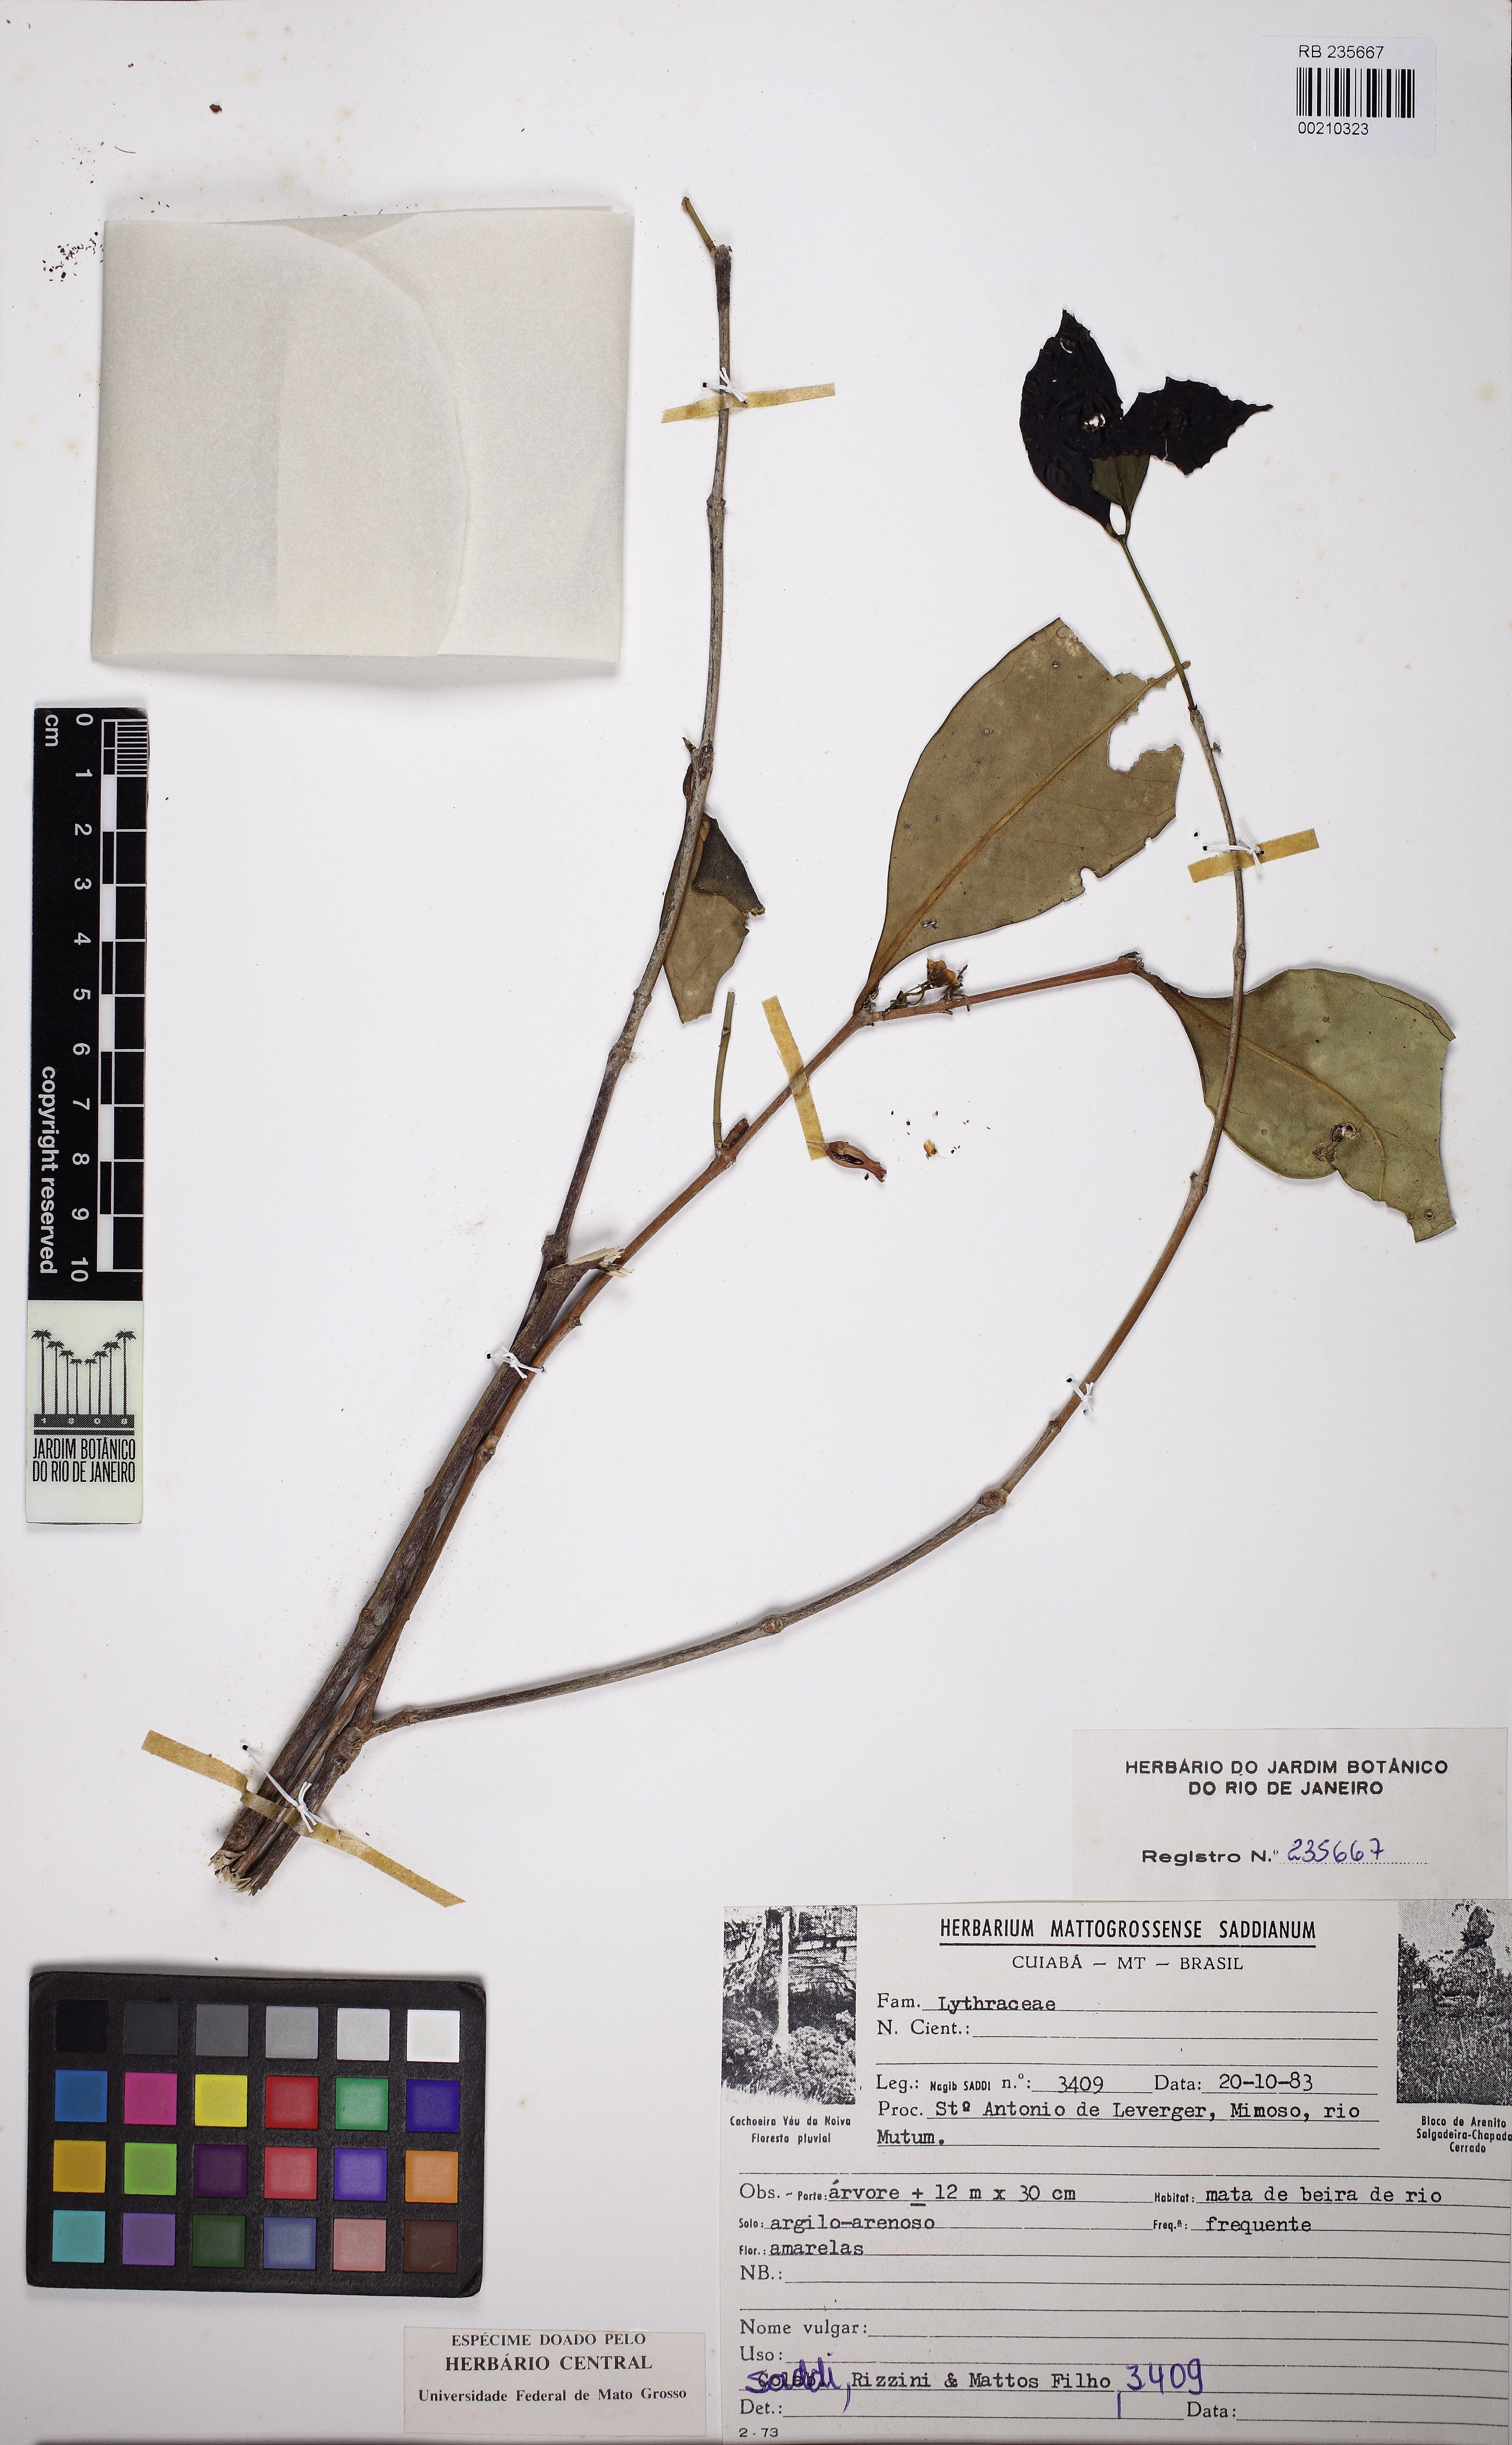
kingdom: Plantae
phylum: Tracheophyta
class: Magnoliopsida
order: Myrtales
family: Lythraceae
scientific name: Lythraceae
